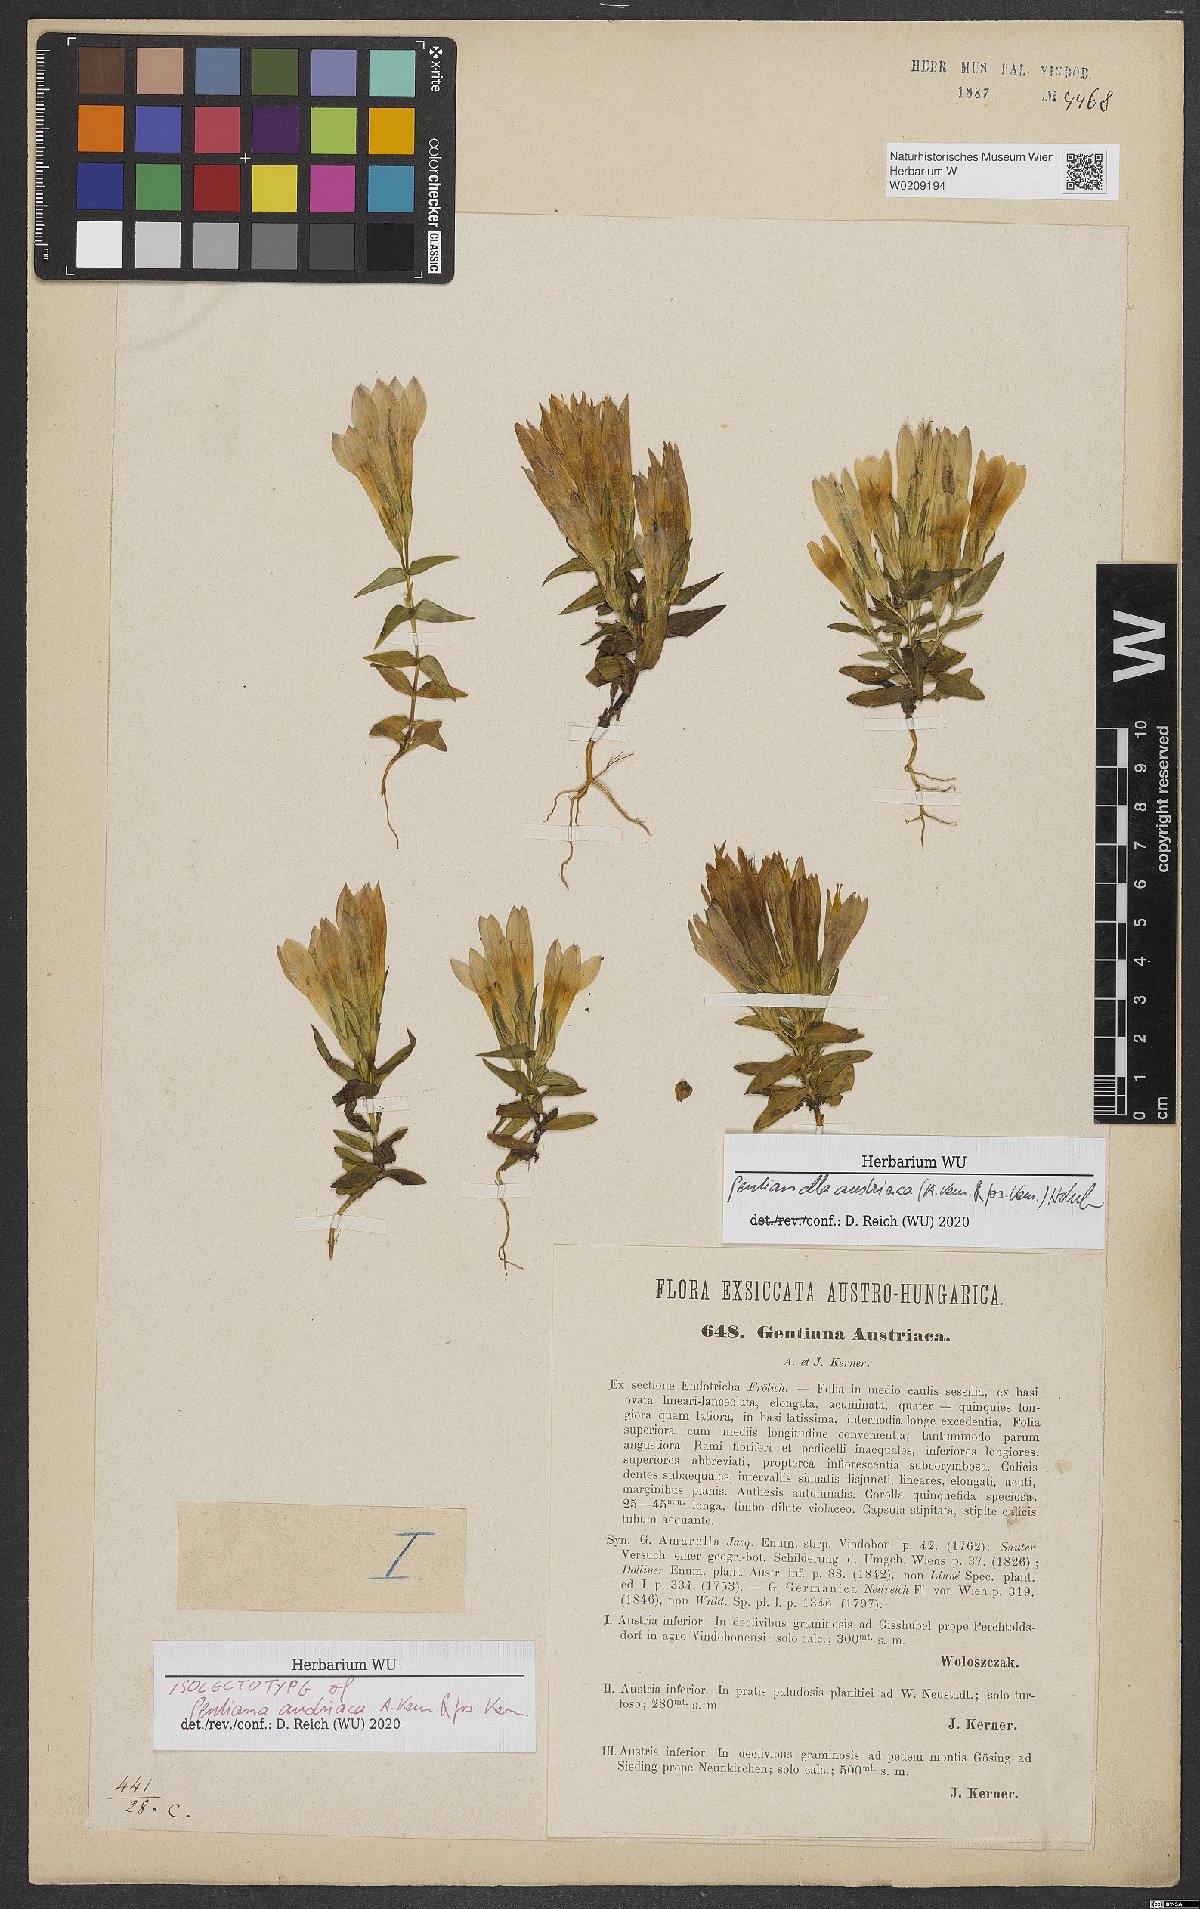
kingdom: Plantae
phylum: Tracheophyta
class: Magnoliopsida
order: Gentianales
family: Gentianaceae
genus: Gentianella
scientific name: Gentianella austriaca
